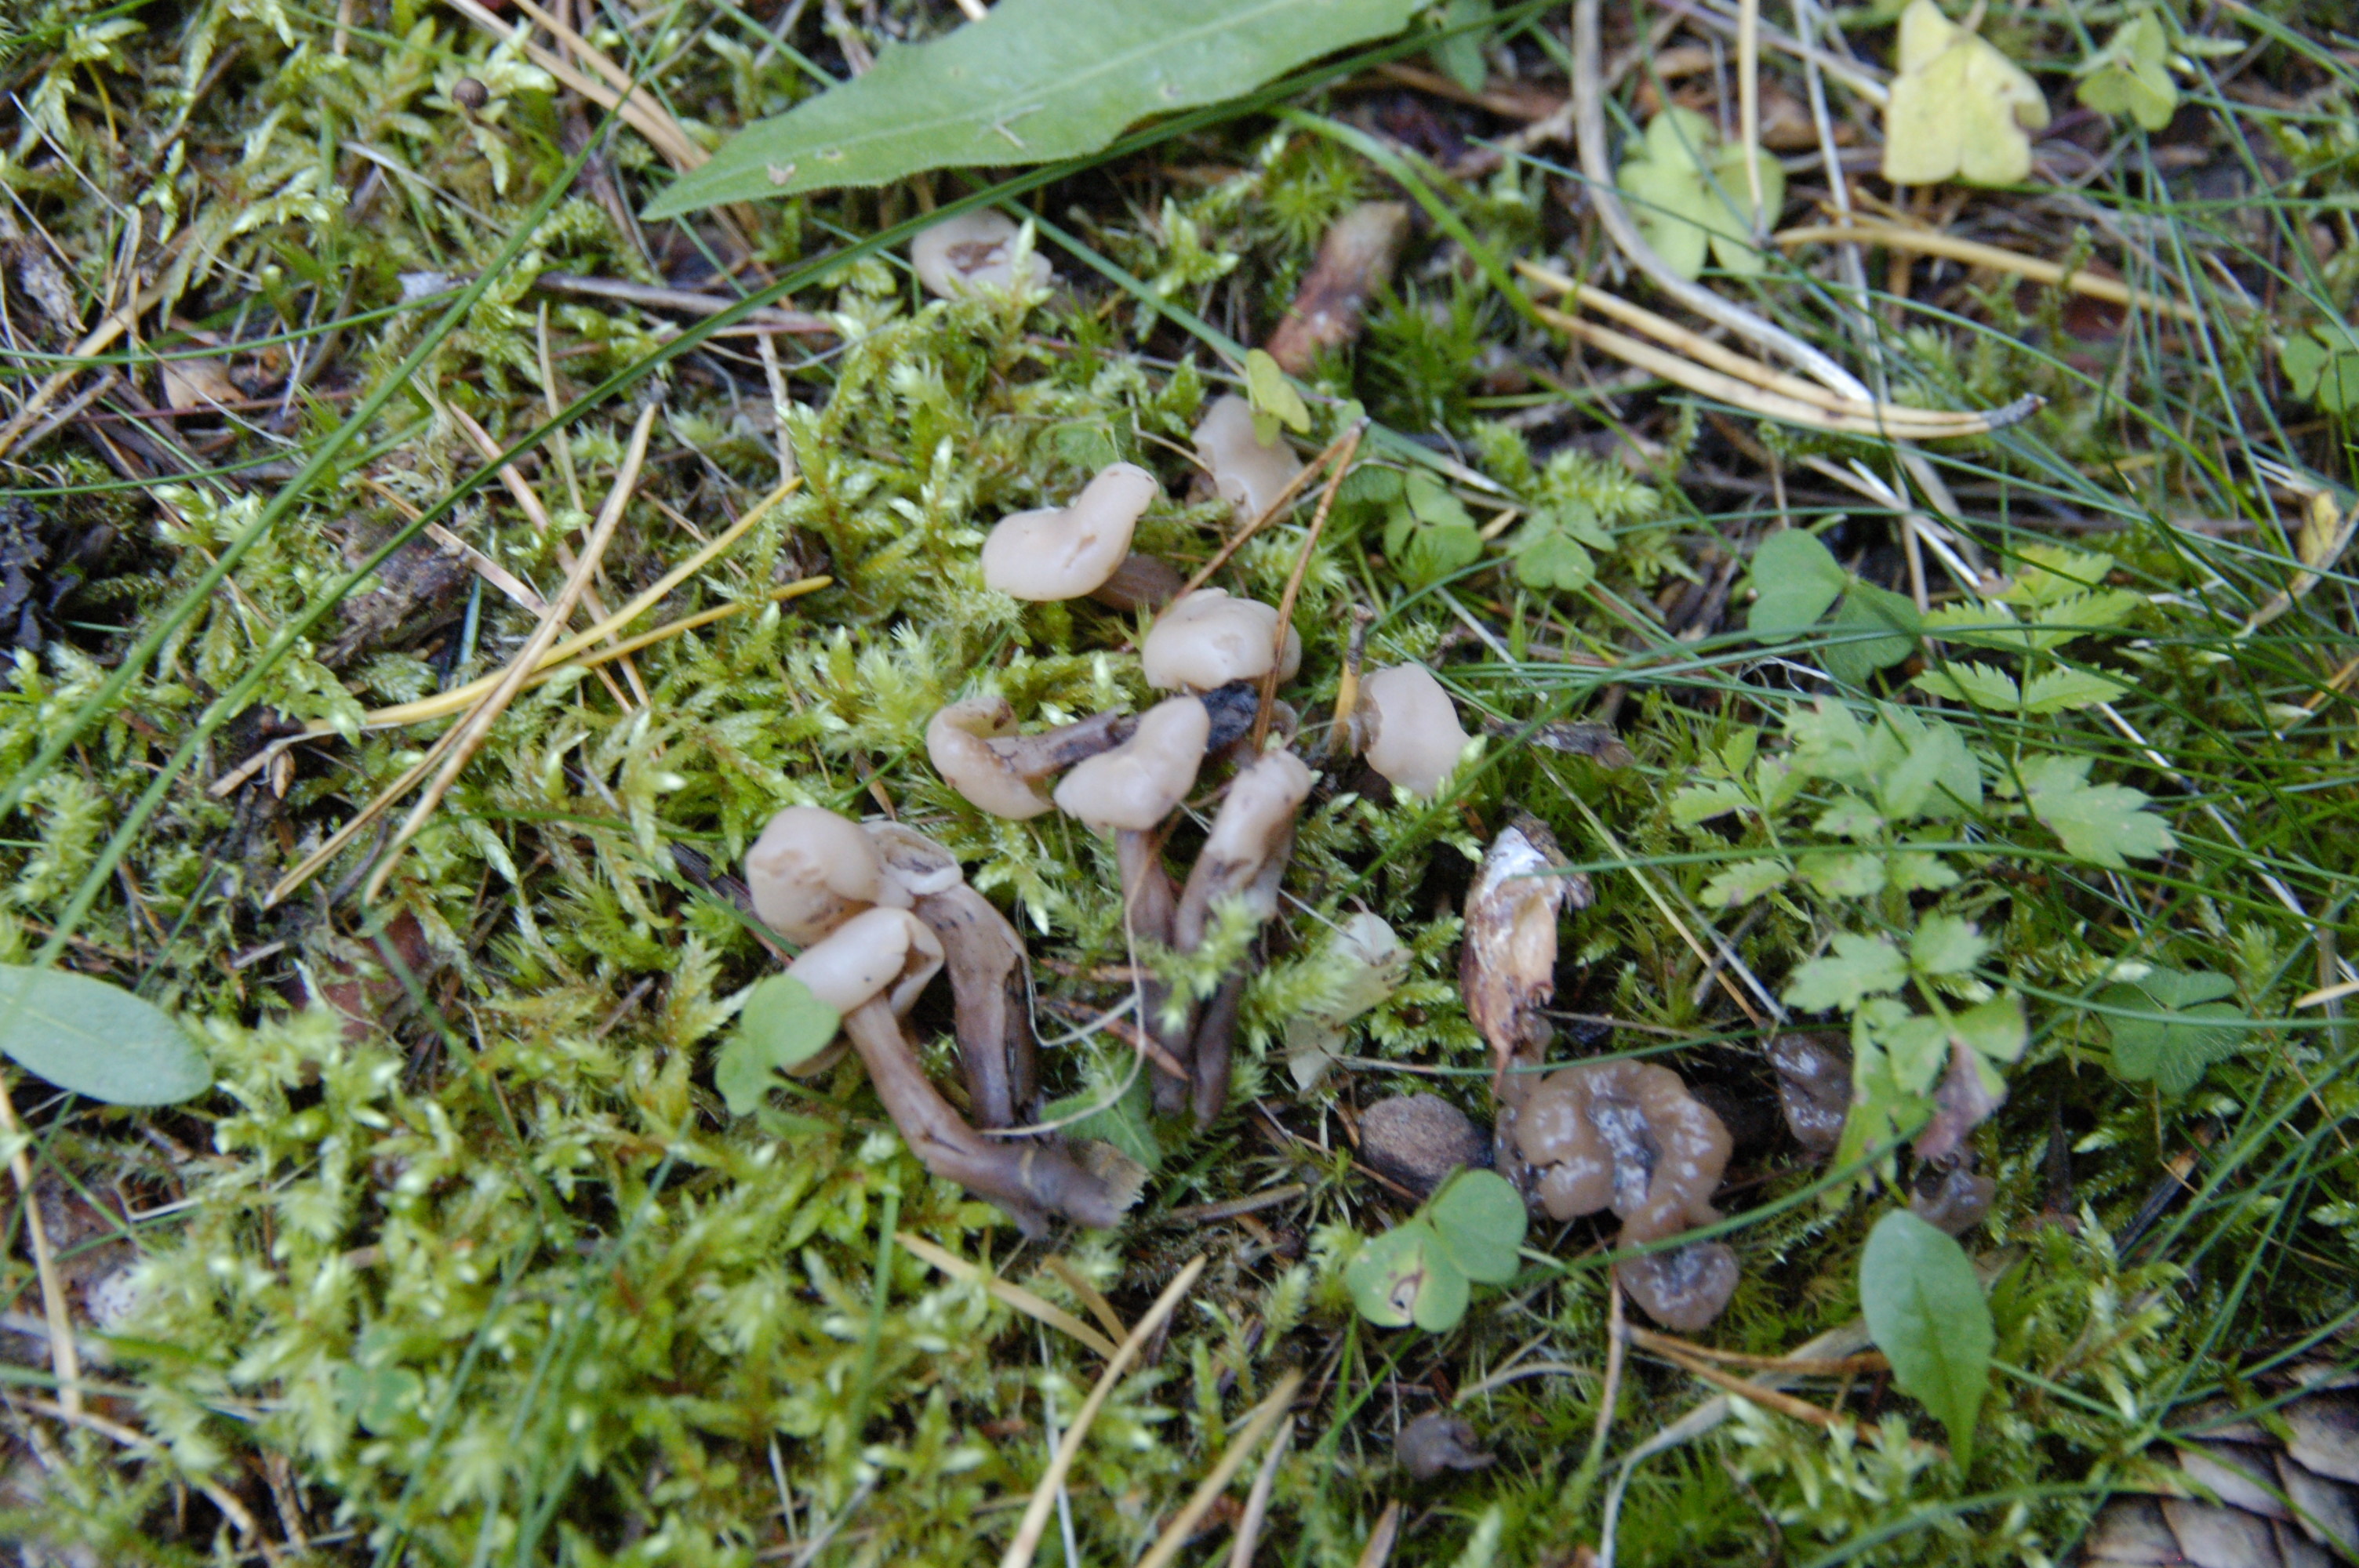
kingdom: Fungi
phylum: Ascomycota
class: Leotiomycetes
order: Rhytismatales
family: Cudoniaceae
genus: Cudonia
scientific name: Cudonia circinans
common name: Redleg jellybaby
